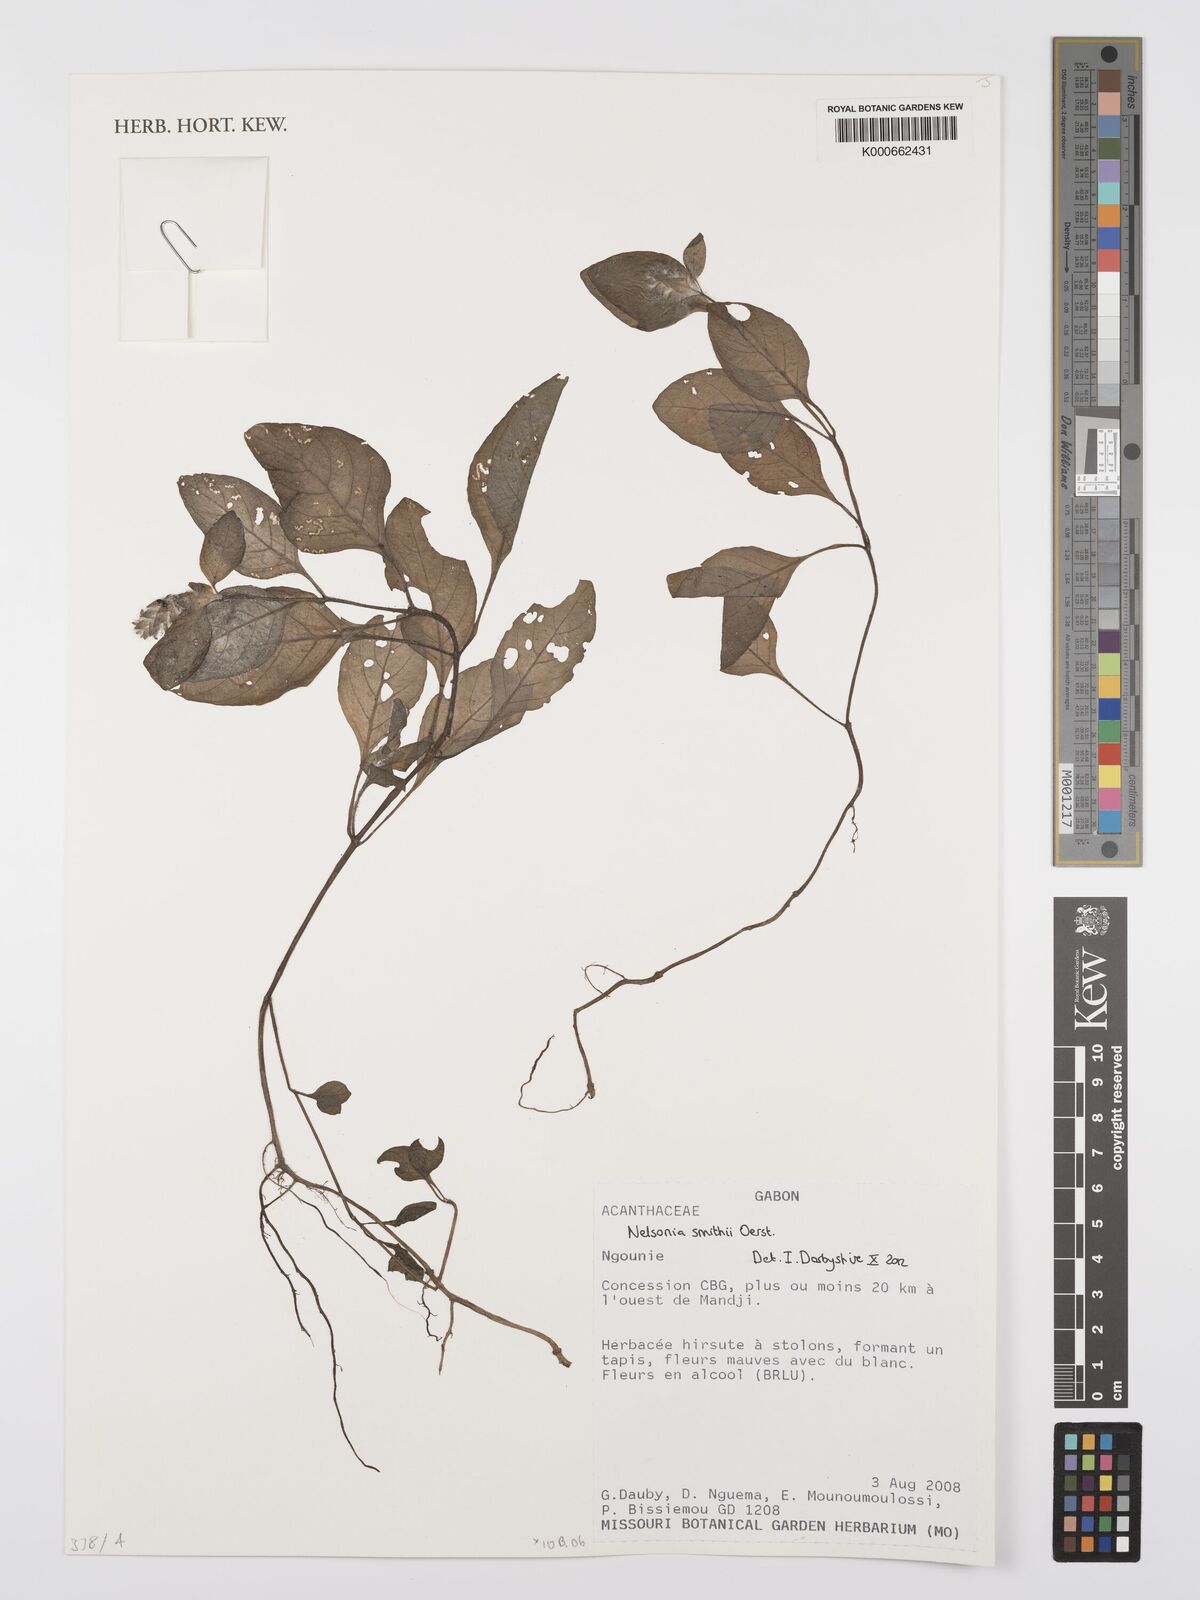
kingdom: Plantae
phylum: Tracheophyta
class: Magnoliopsida
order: Lamiales
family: Acanthaceae
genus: Nelsonia
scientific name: Nelsonia smithii
